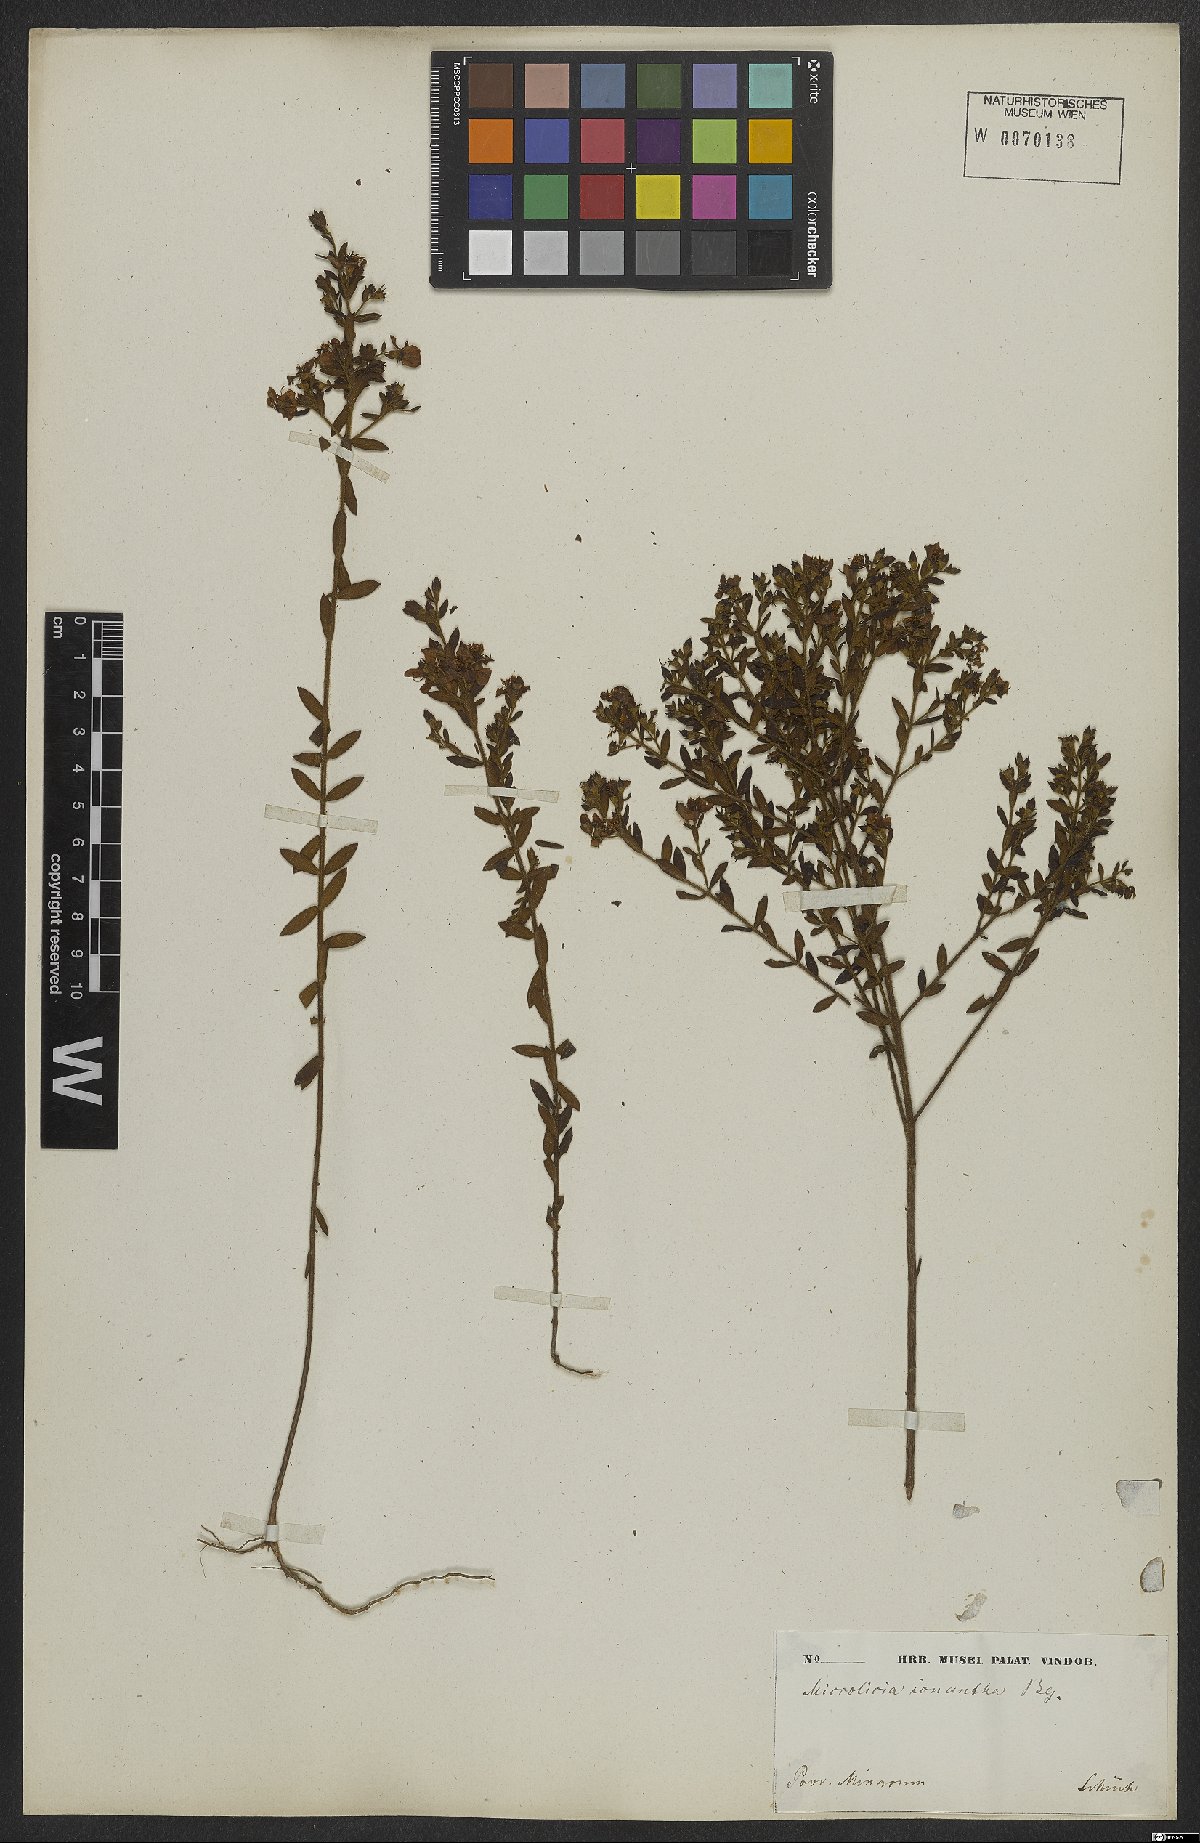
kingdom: Plantae
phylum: Tracheophyta
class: Magnoliopsida
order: Myrtales
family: Melastomataceae
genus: Microlicia
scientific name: Microlicia euphorbioides
